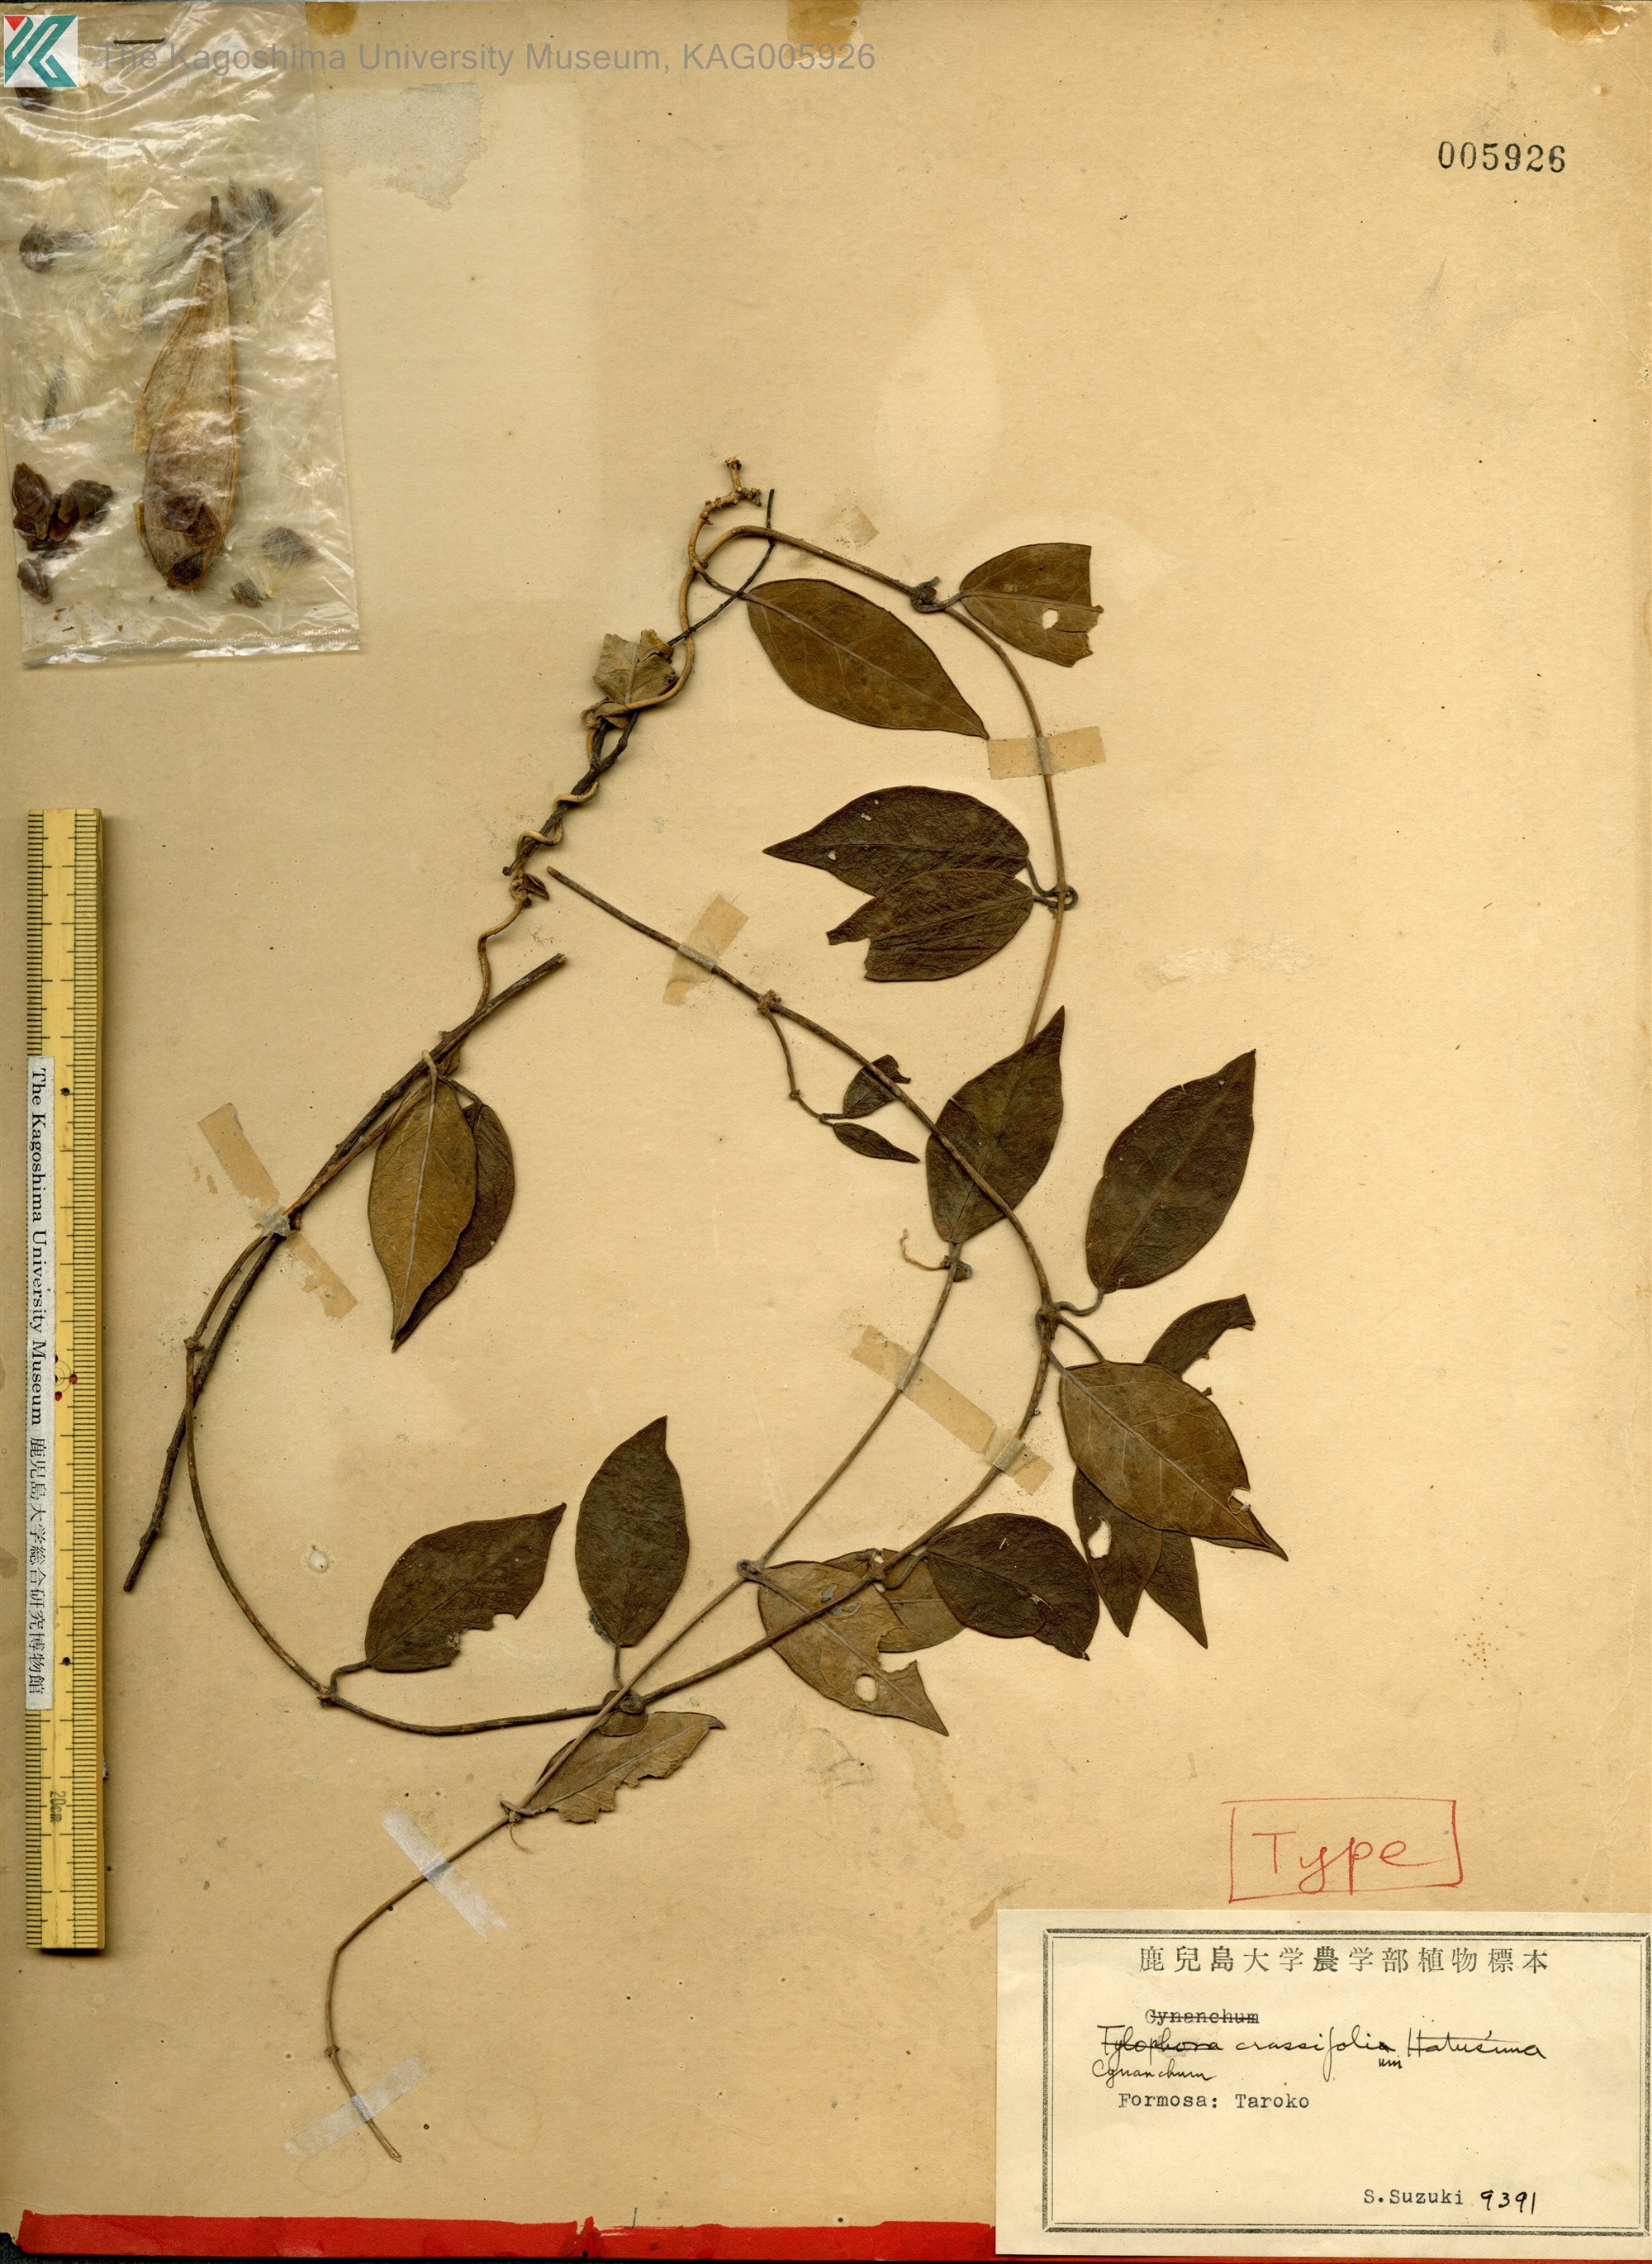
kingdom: Plantae
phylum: Tracheophyta
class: Magnoliopsida
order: Gentianales
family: Apocynaceae
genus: Cynanchum
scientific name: Cynanchum ovalifolium
